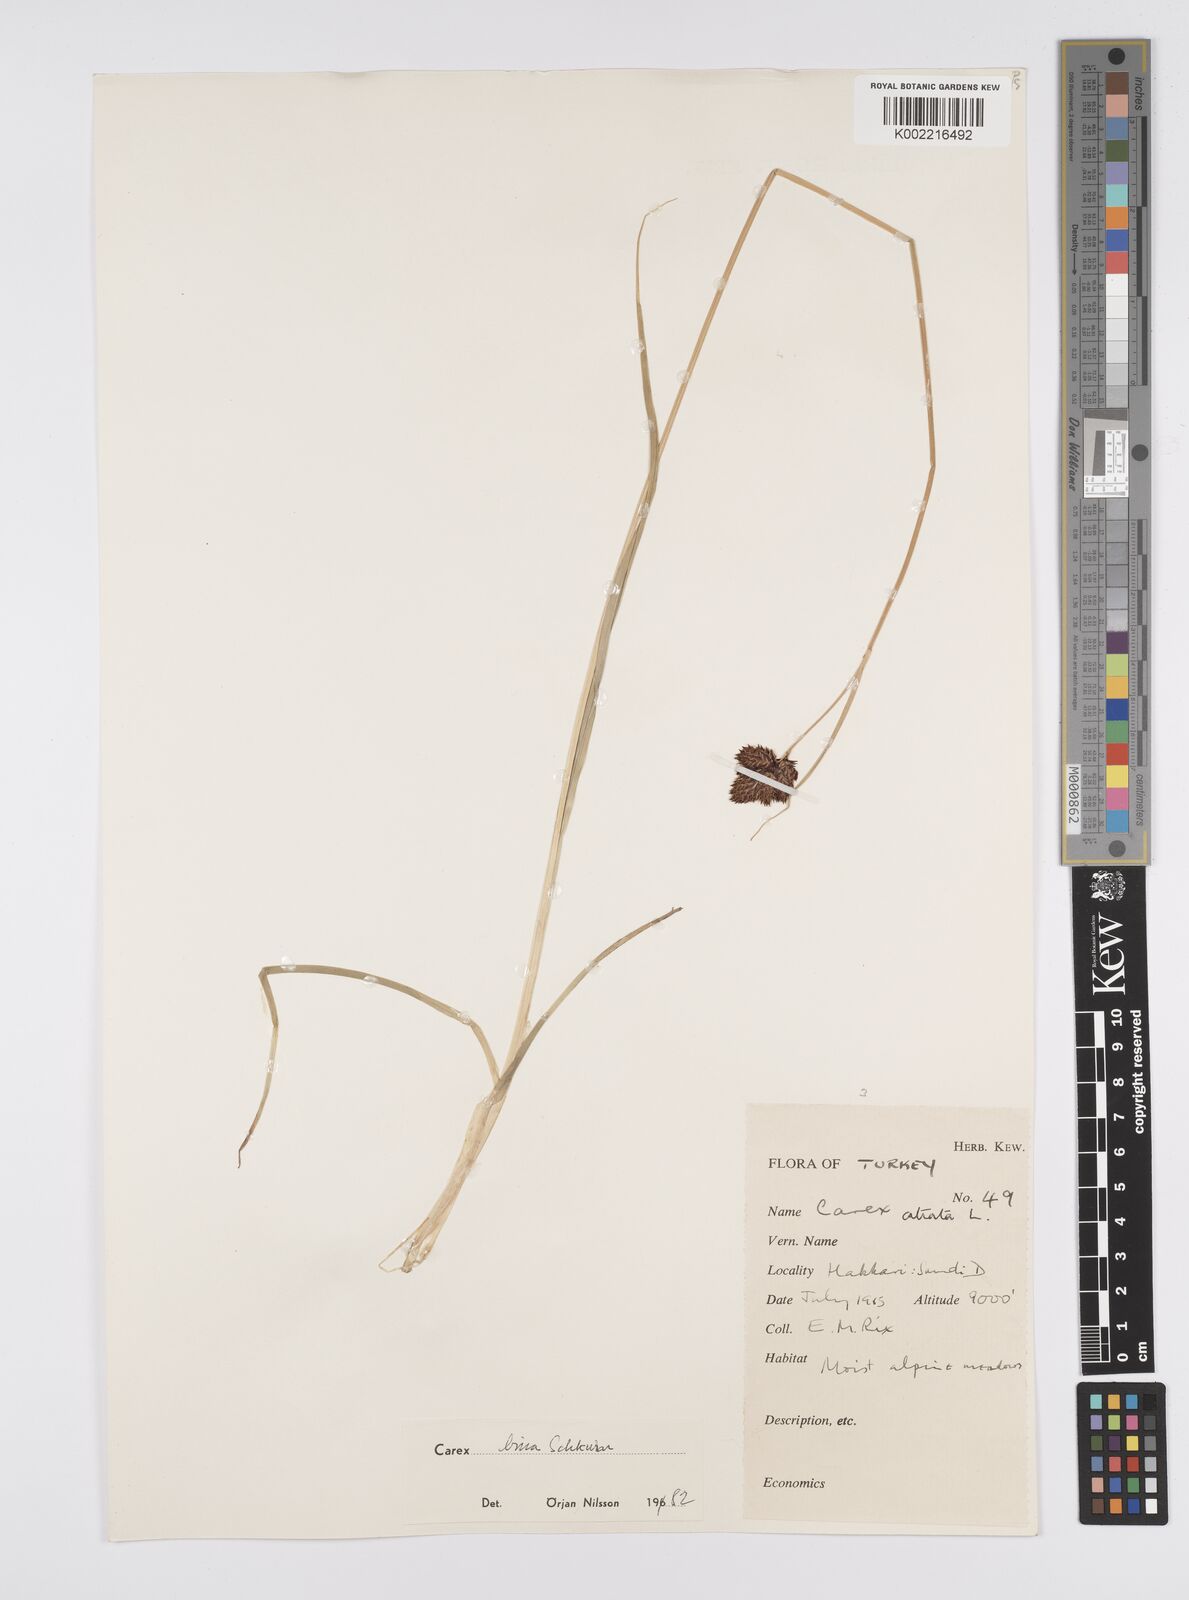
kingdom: Plantae
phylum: Tracheophyta
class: Liliopsida
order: Poales
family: Cyperaceae
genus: Carex
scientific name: Carex parviflora
